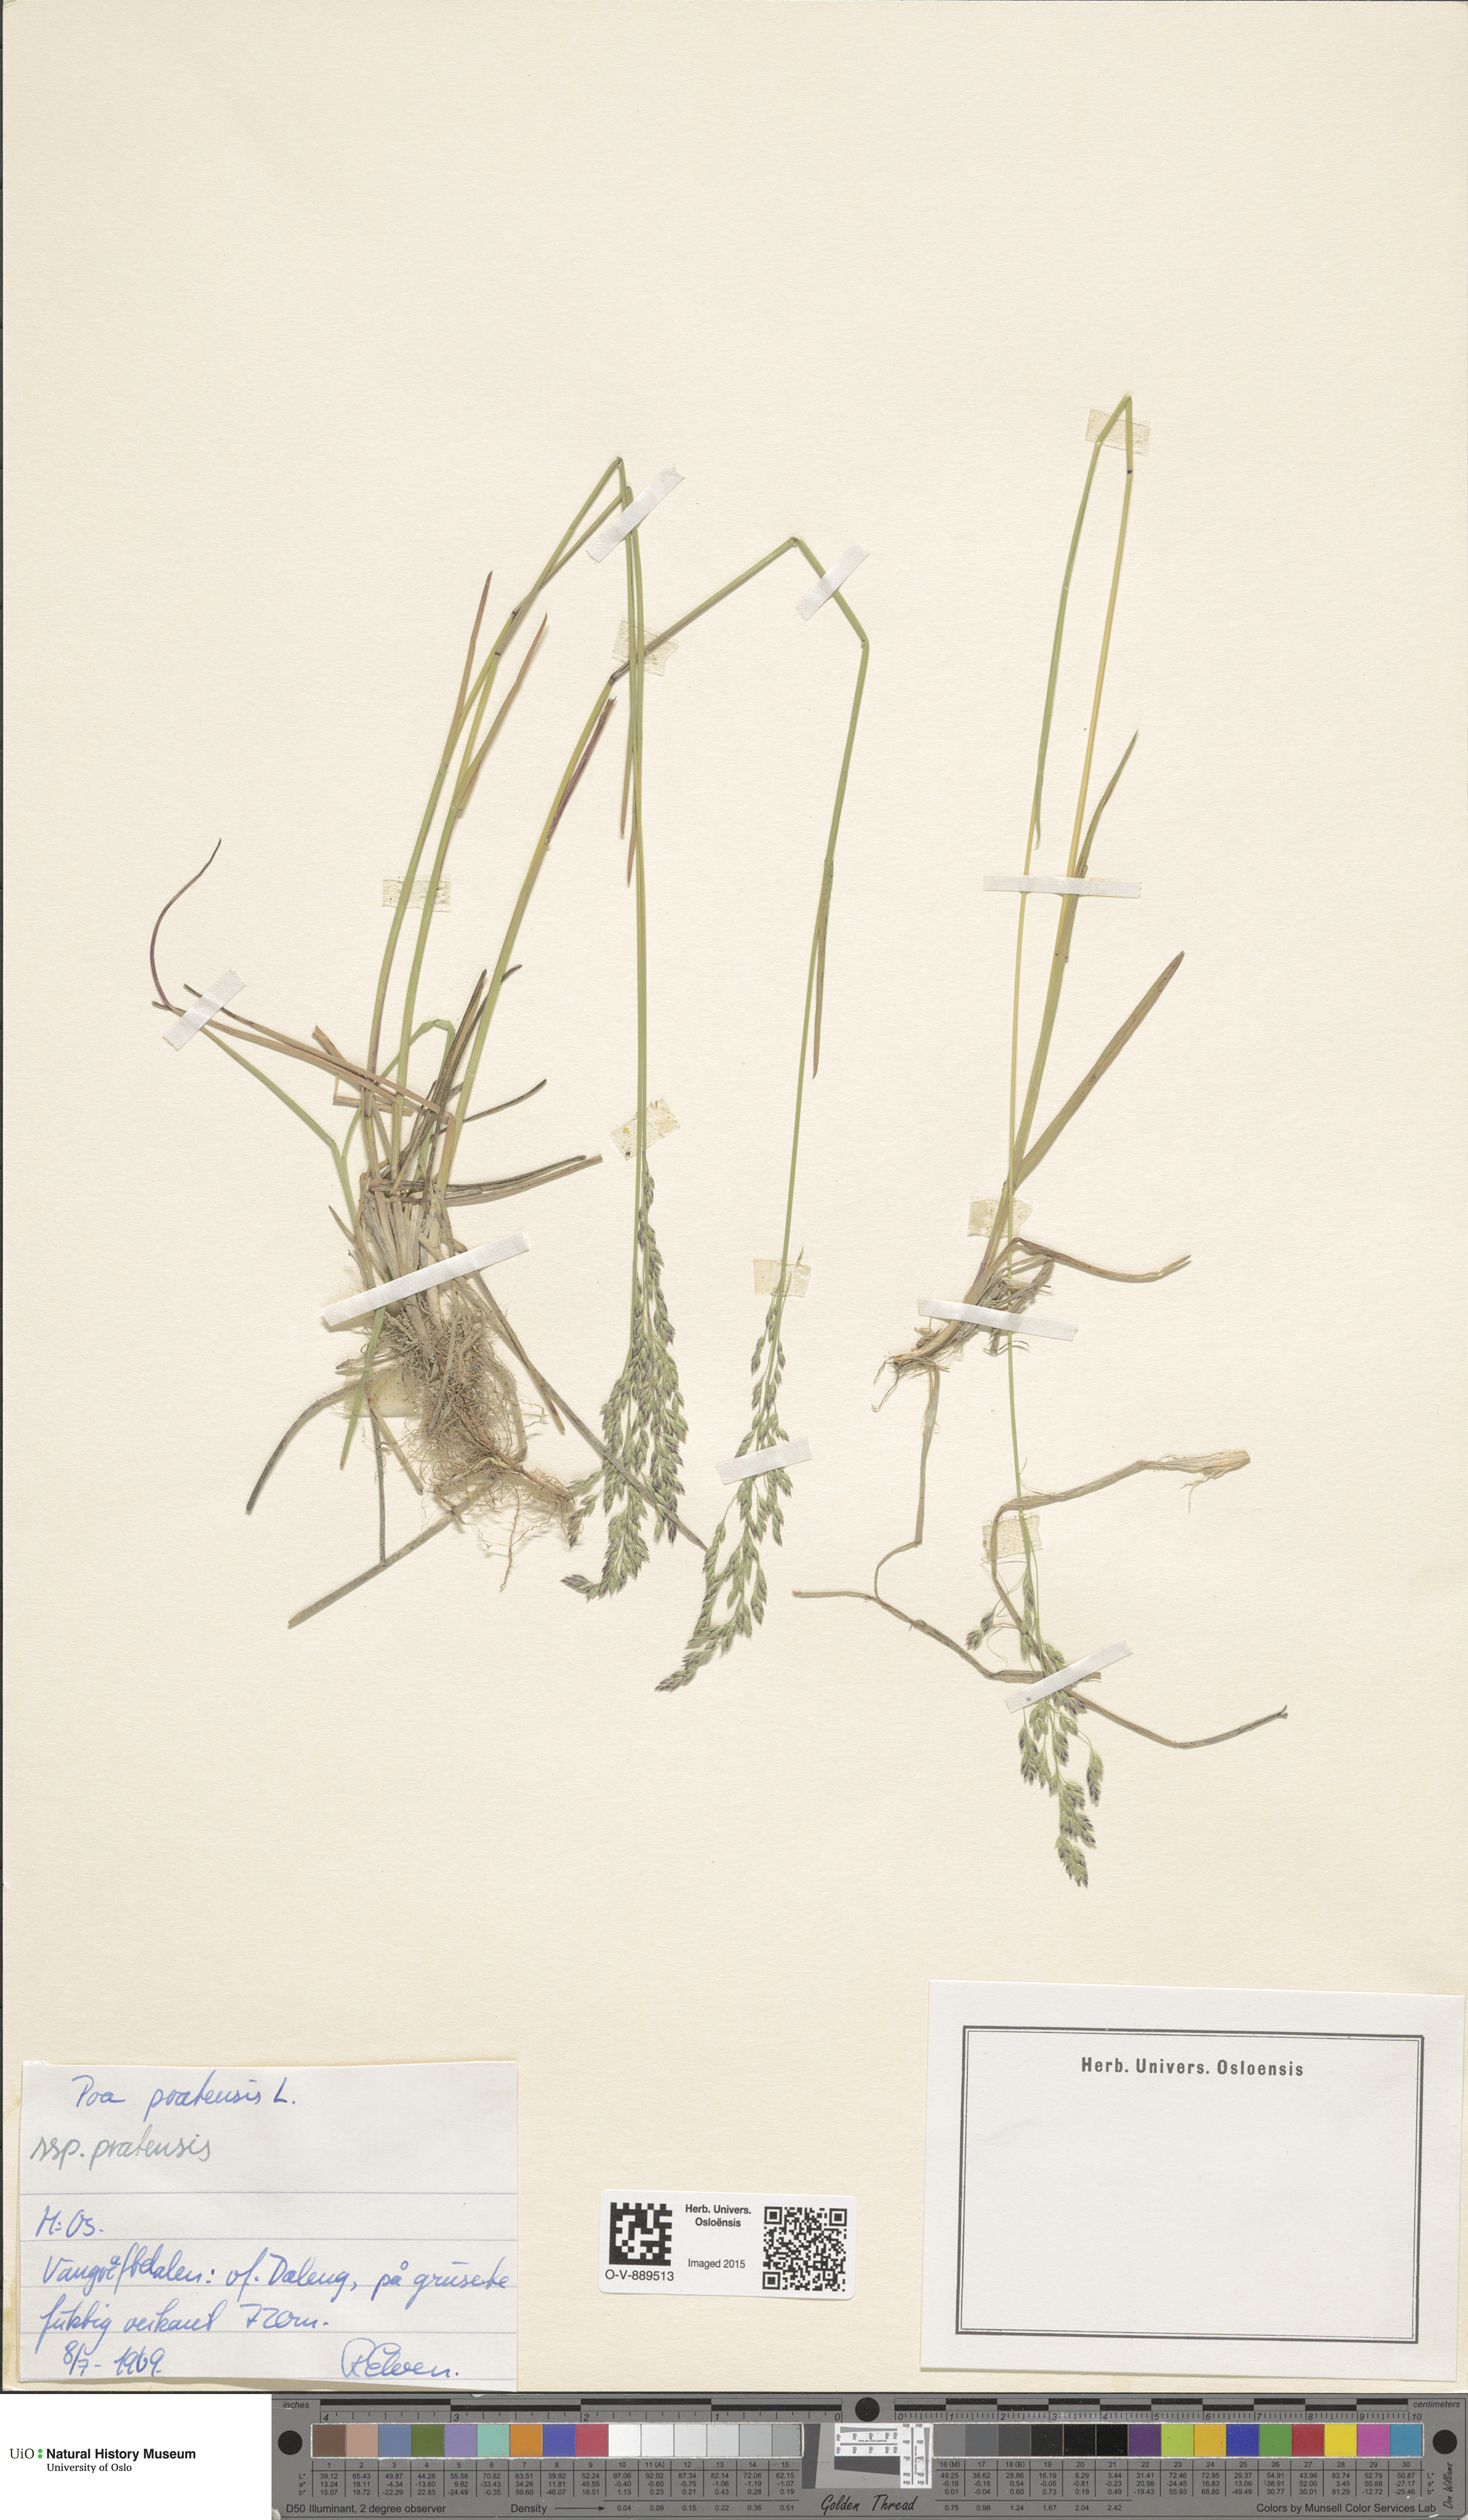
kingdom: Plantae
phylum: Tracheophyta
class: Liliopsida
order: Poales
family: Poaceae
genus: Poa
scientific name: Poa pratensis
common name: Kentucky bluegrass
